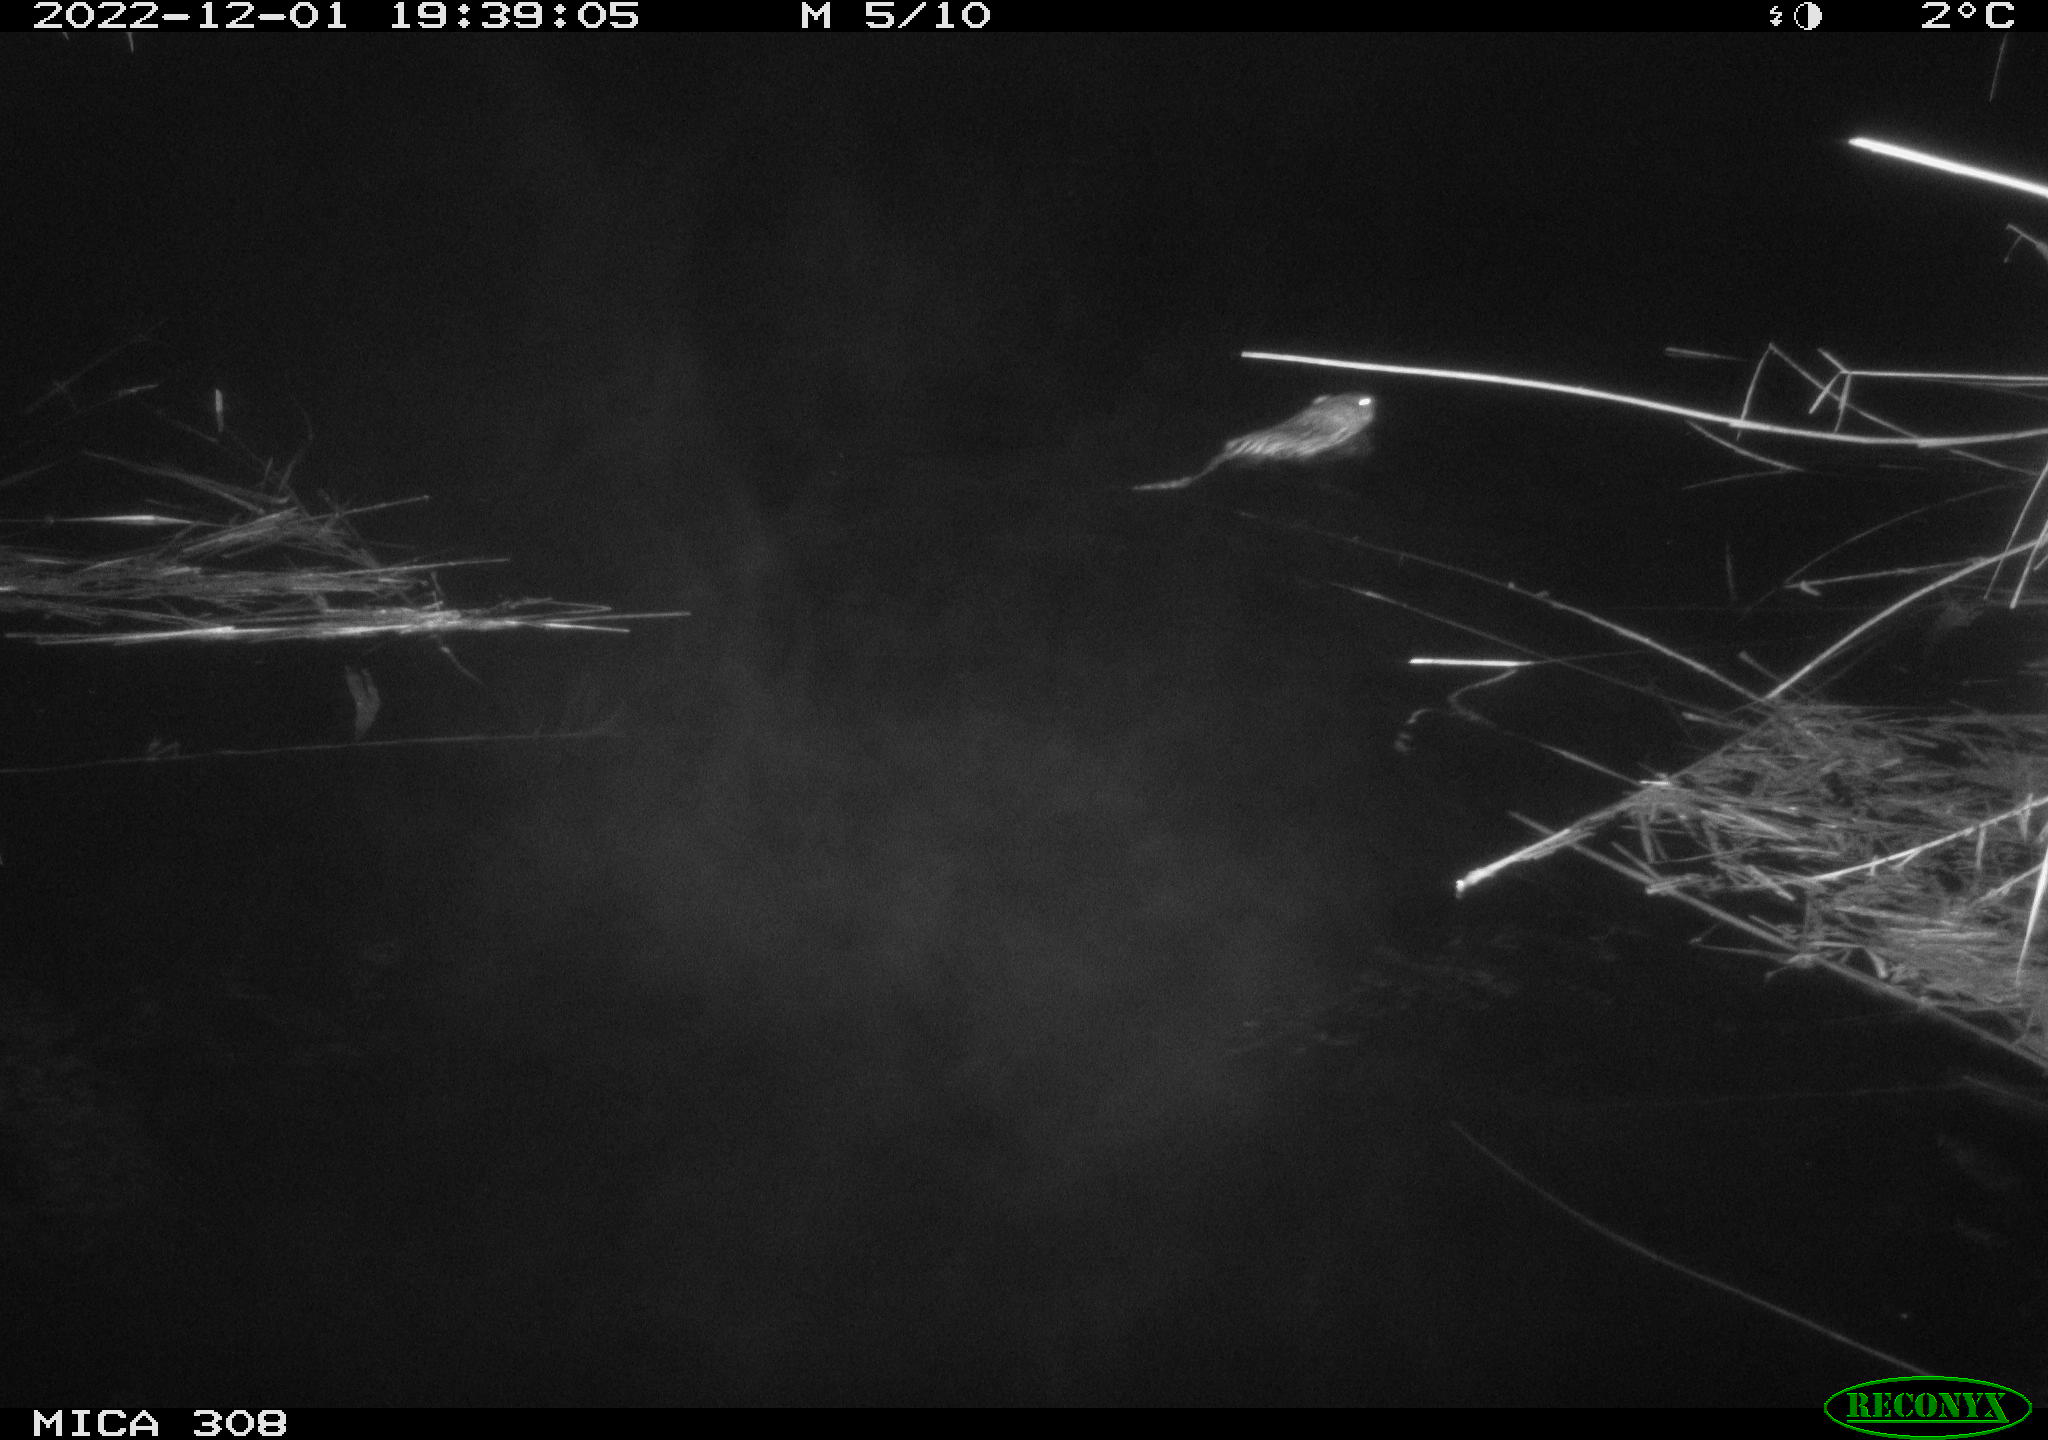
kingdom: Animalia
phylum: Chordata
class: Mammalia
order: Rodentia
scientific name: Rodentia
